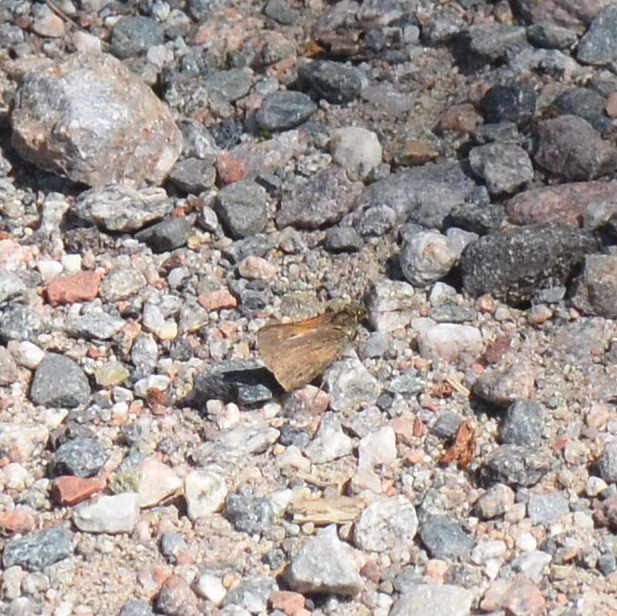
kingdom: Animalia
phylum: Arthropoda
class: Insecta
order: Lepidoptera
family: Hesperiidae
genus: Polites
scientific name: Polites themistocles
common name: Tawny-edged Skipper
